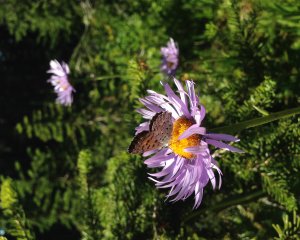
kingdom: Animalia
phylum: Arthropoda
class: Insecta
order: Lepidoptera
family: Lycaenidae
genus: Lycaena
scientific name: Lycaena mariposa
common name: Mariposa Copper
